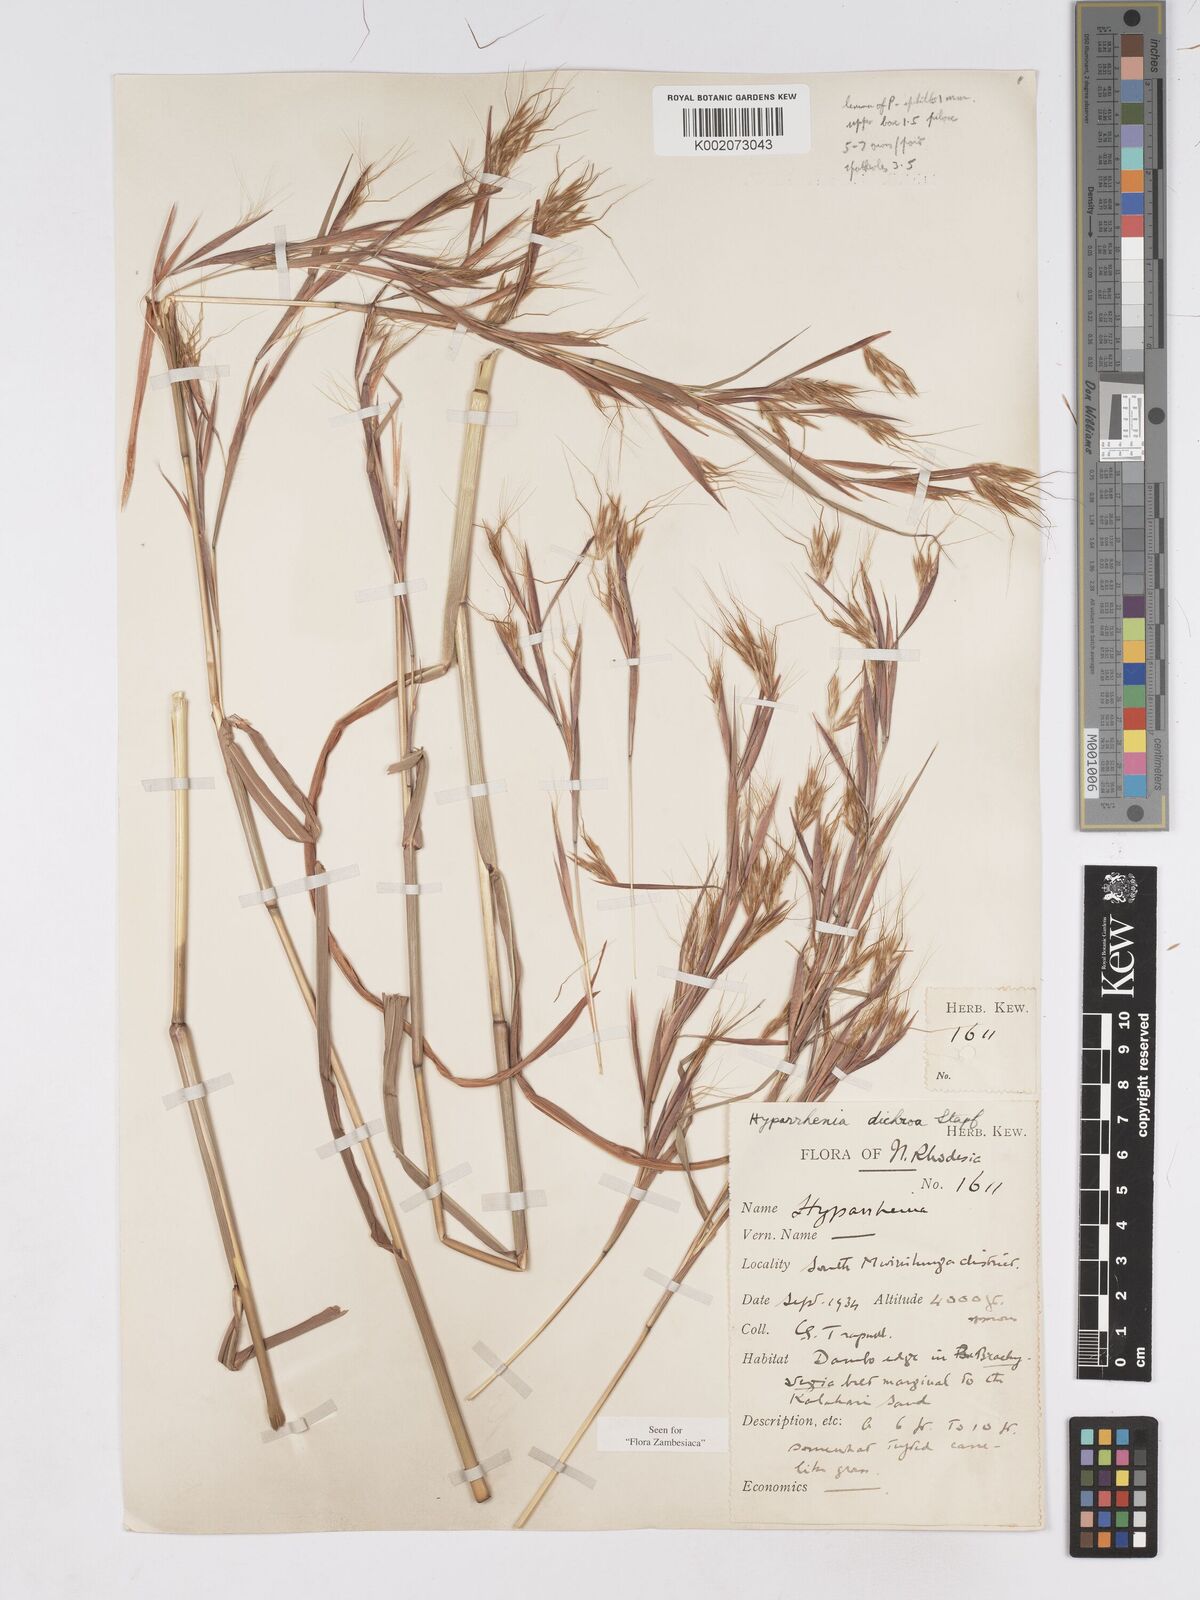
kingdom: Plantae
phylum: Tracheophyta
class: Liliopsida
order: Poales
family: Poaceae
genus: Hyparrhenia
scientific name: Hyparrhenia dichroa
